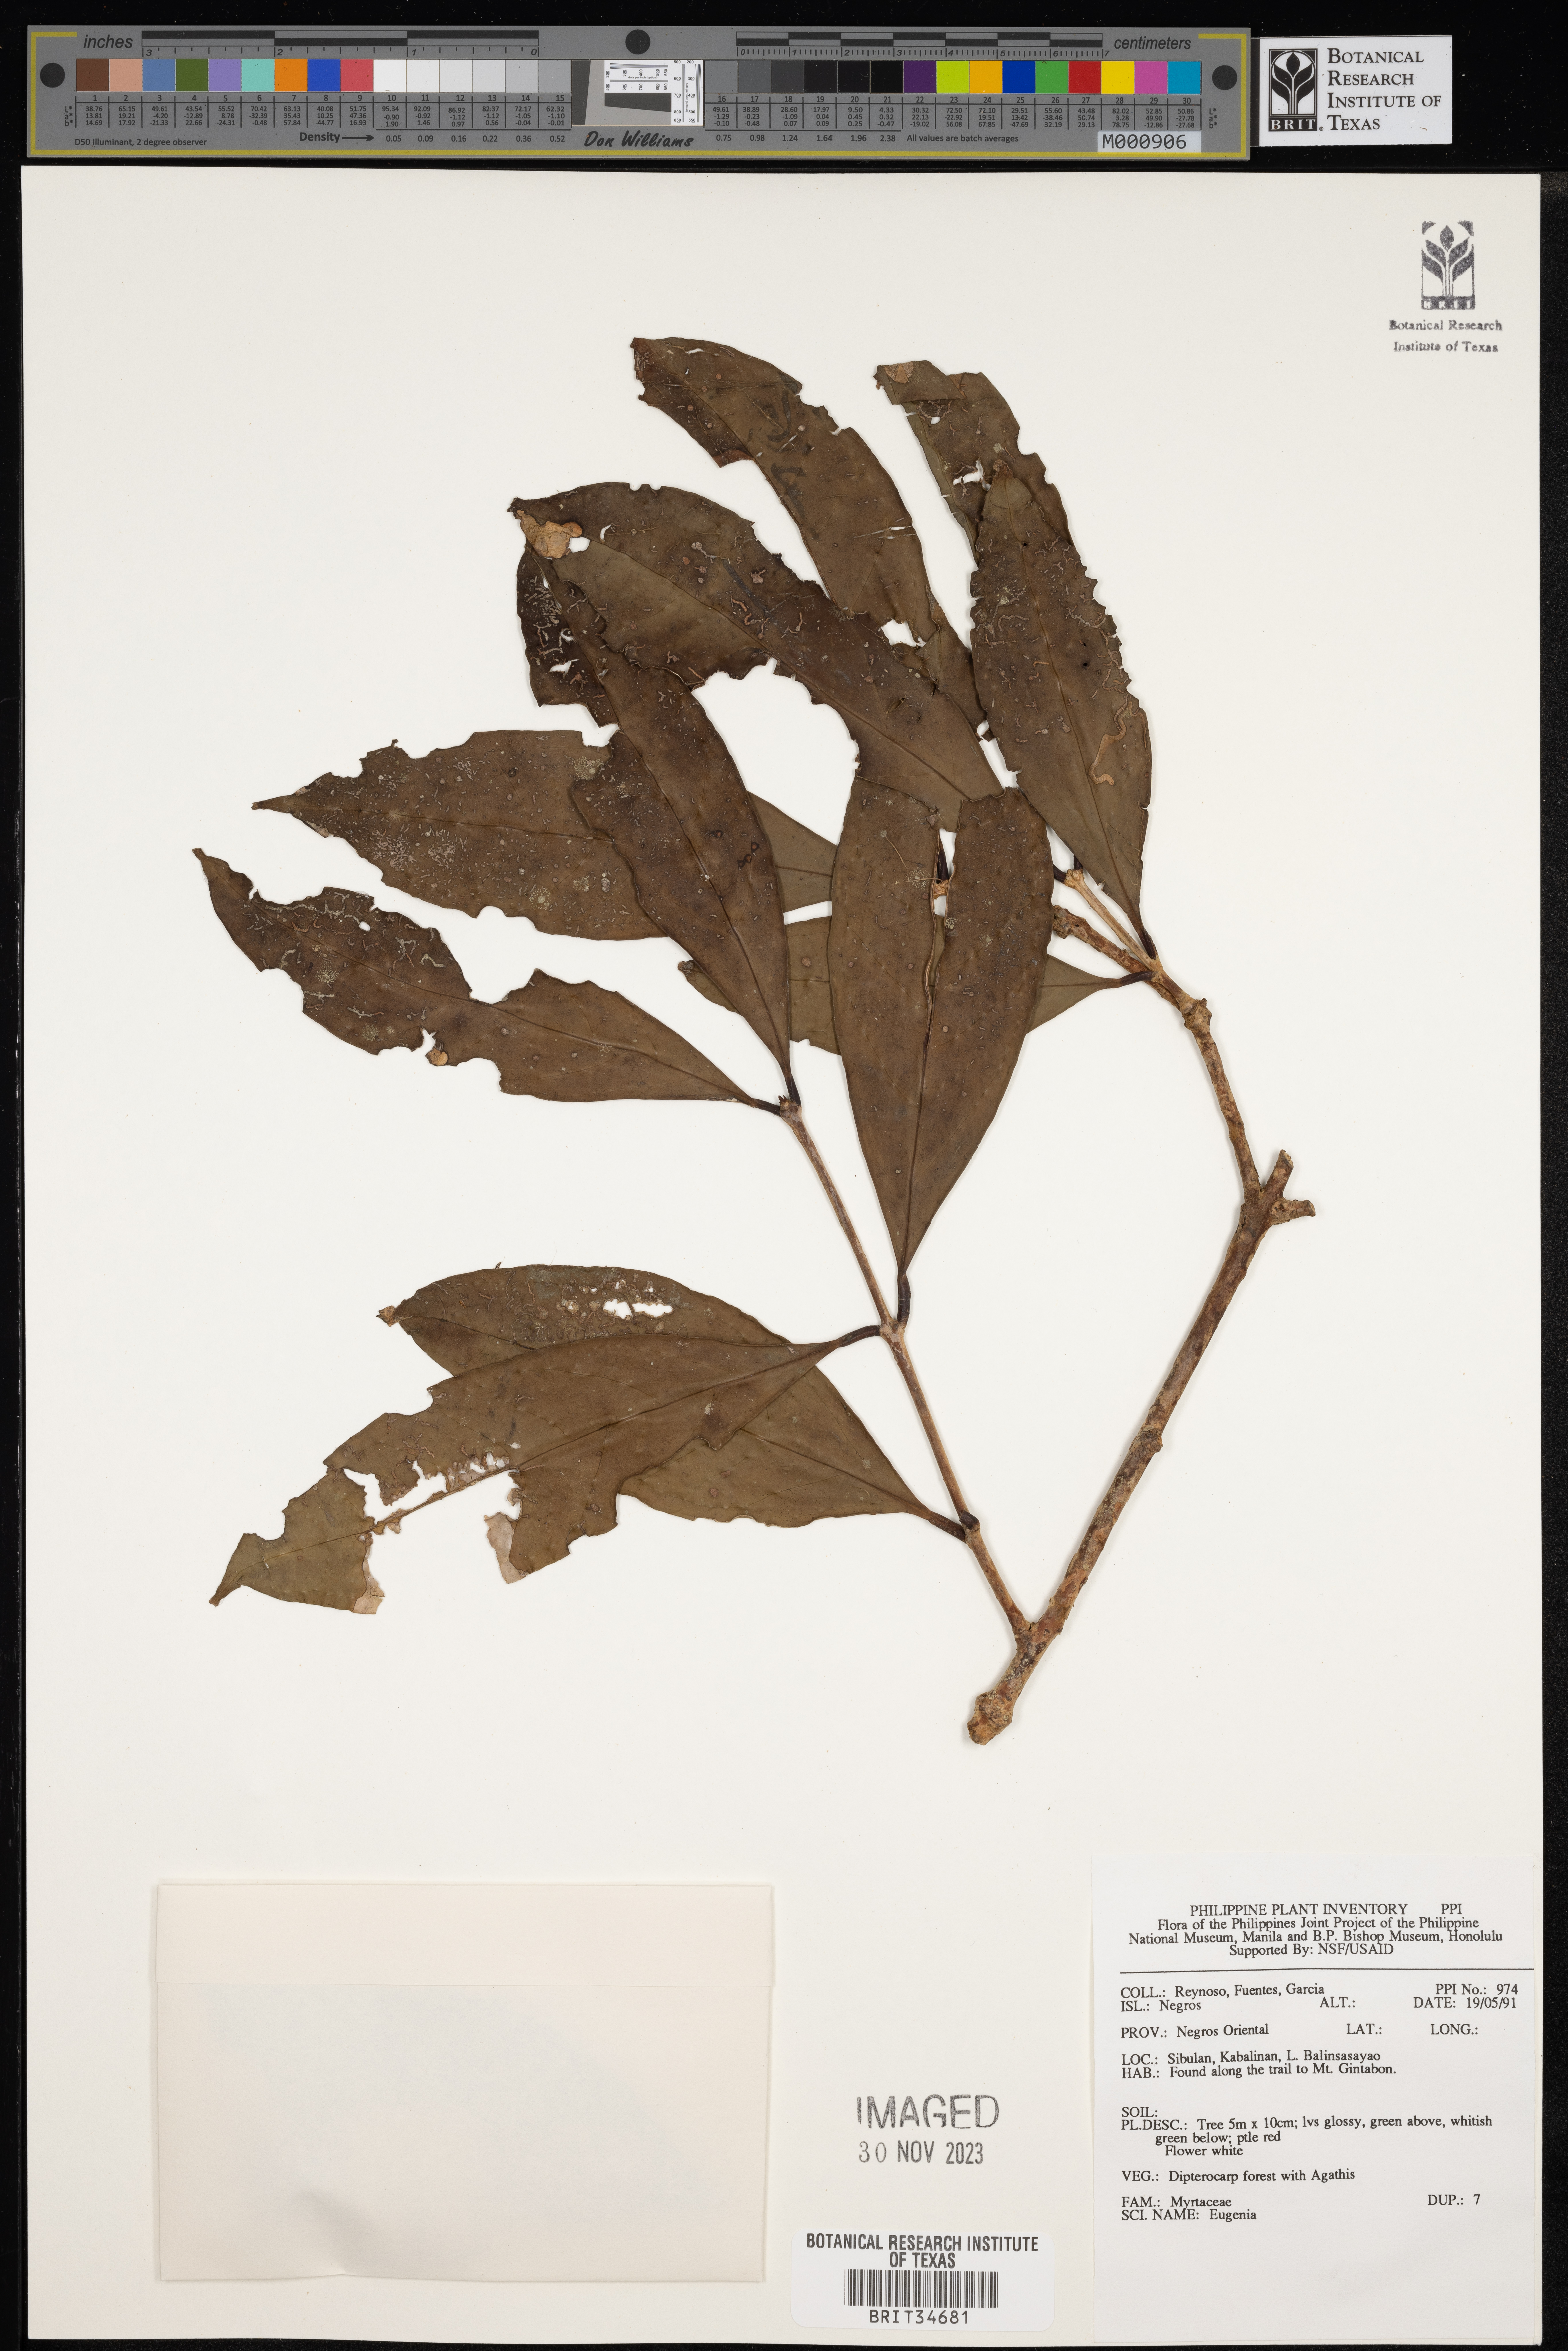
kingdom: Plantae
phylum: Tracheophyta
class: Magnoliopsida
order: Myrtales
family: Myrtaceae
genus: Eugenia
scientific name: Eugenia
